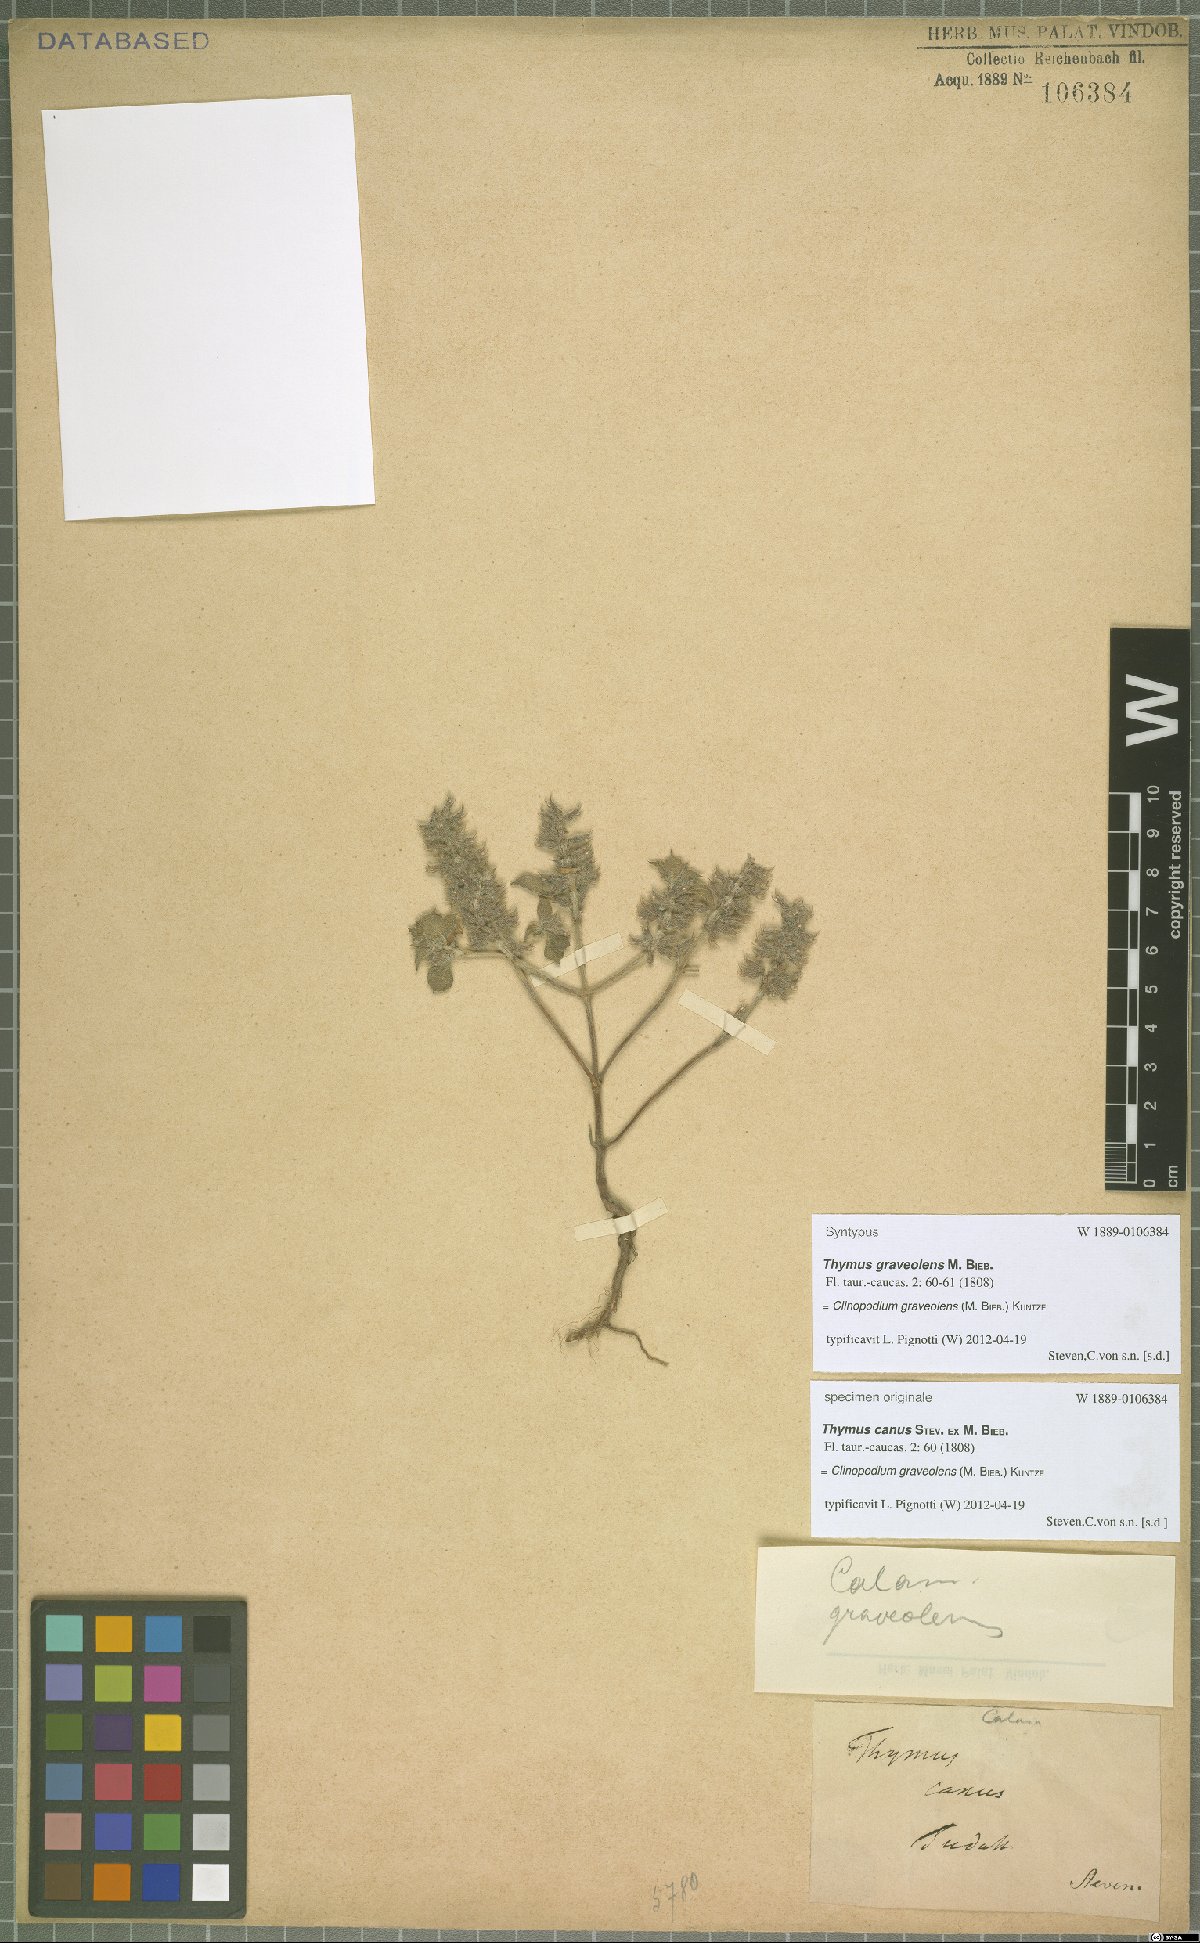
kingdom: Plantae
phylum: Tracheophyta
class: Magnoliopsida
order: Lamiales
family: Lamiaceae
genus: Clinopodium
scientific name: Clinopodium graveolens
